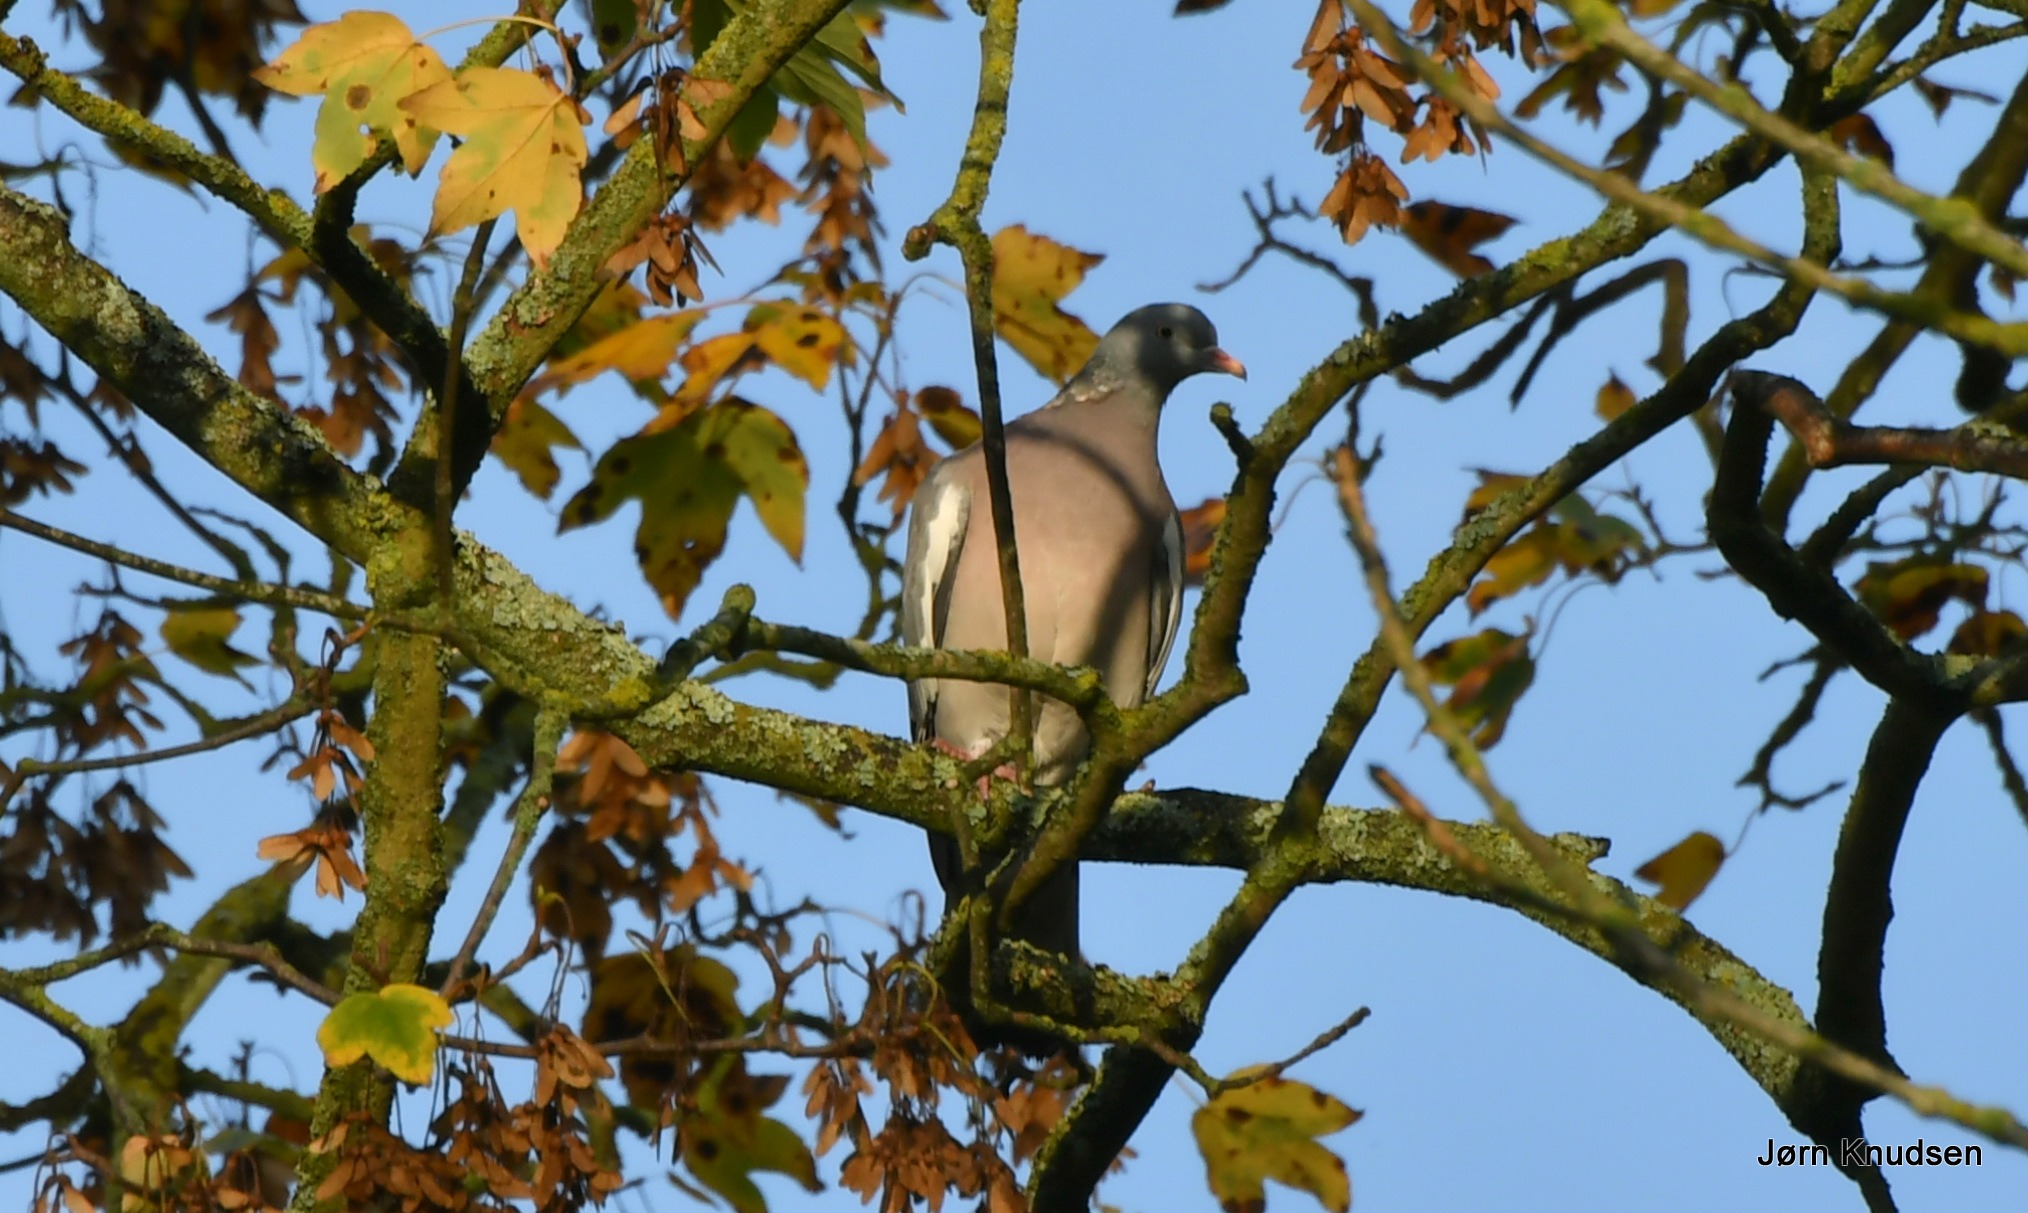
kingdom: Animalia
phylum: Chordata
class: Aves
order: Columbiformes
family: Columbidae
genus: Columba
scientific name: Columba palumbus
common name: Ringdue
